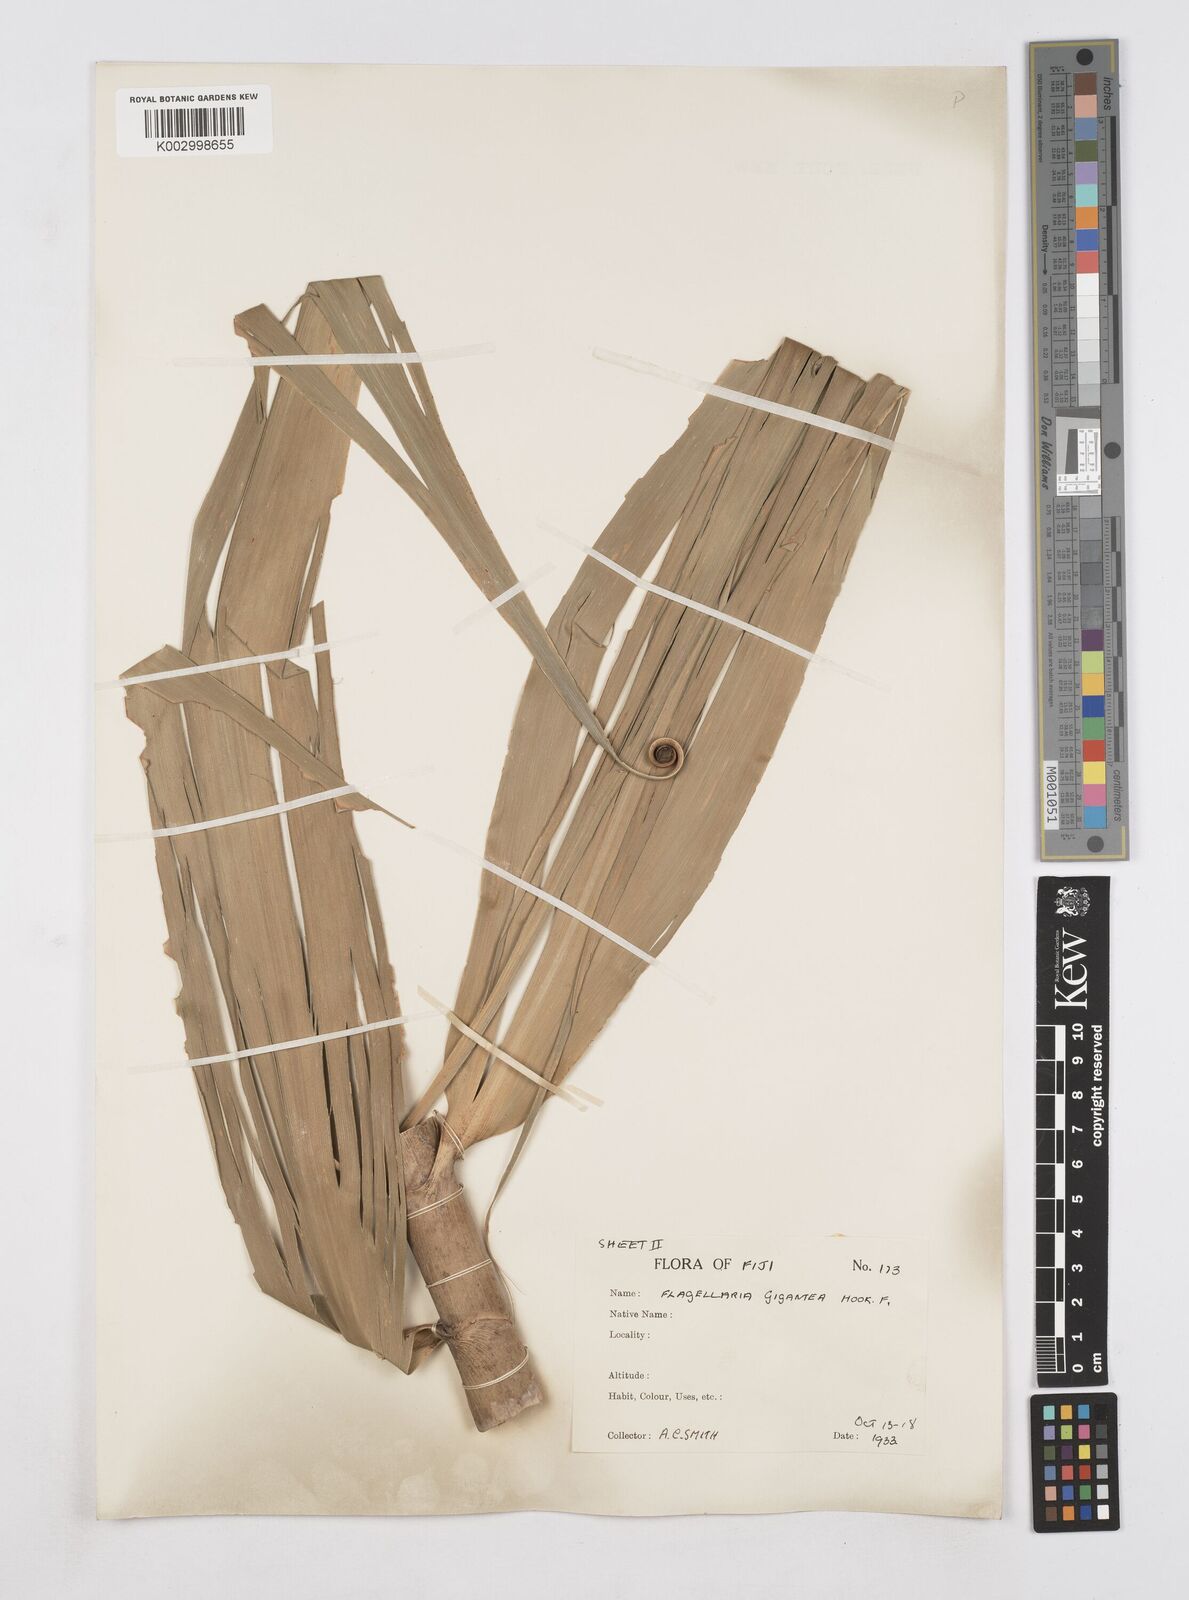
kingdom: Plantae
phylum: Tracheophyta
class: Liliopsida
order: Poales
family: Flagellariaceae
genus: Flagellaria
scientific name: Flagellaria gigantea
